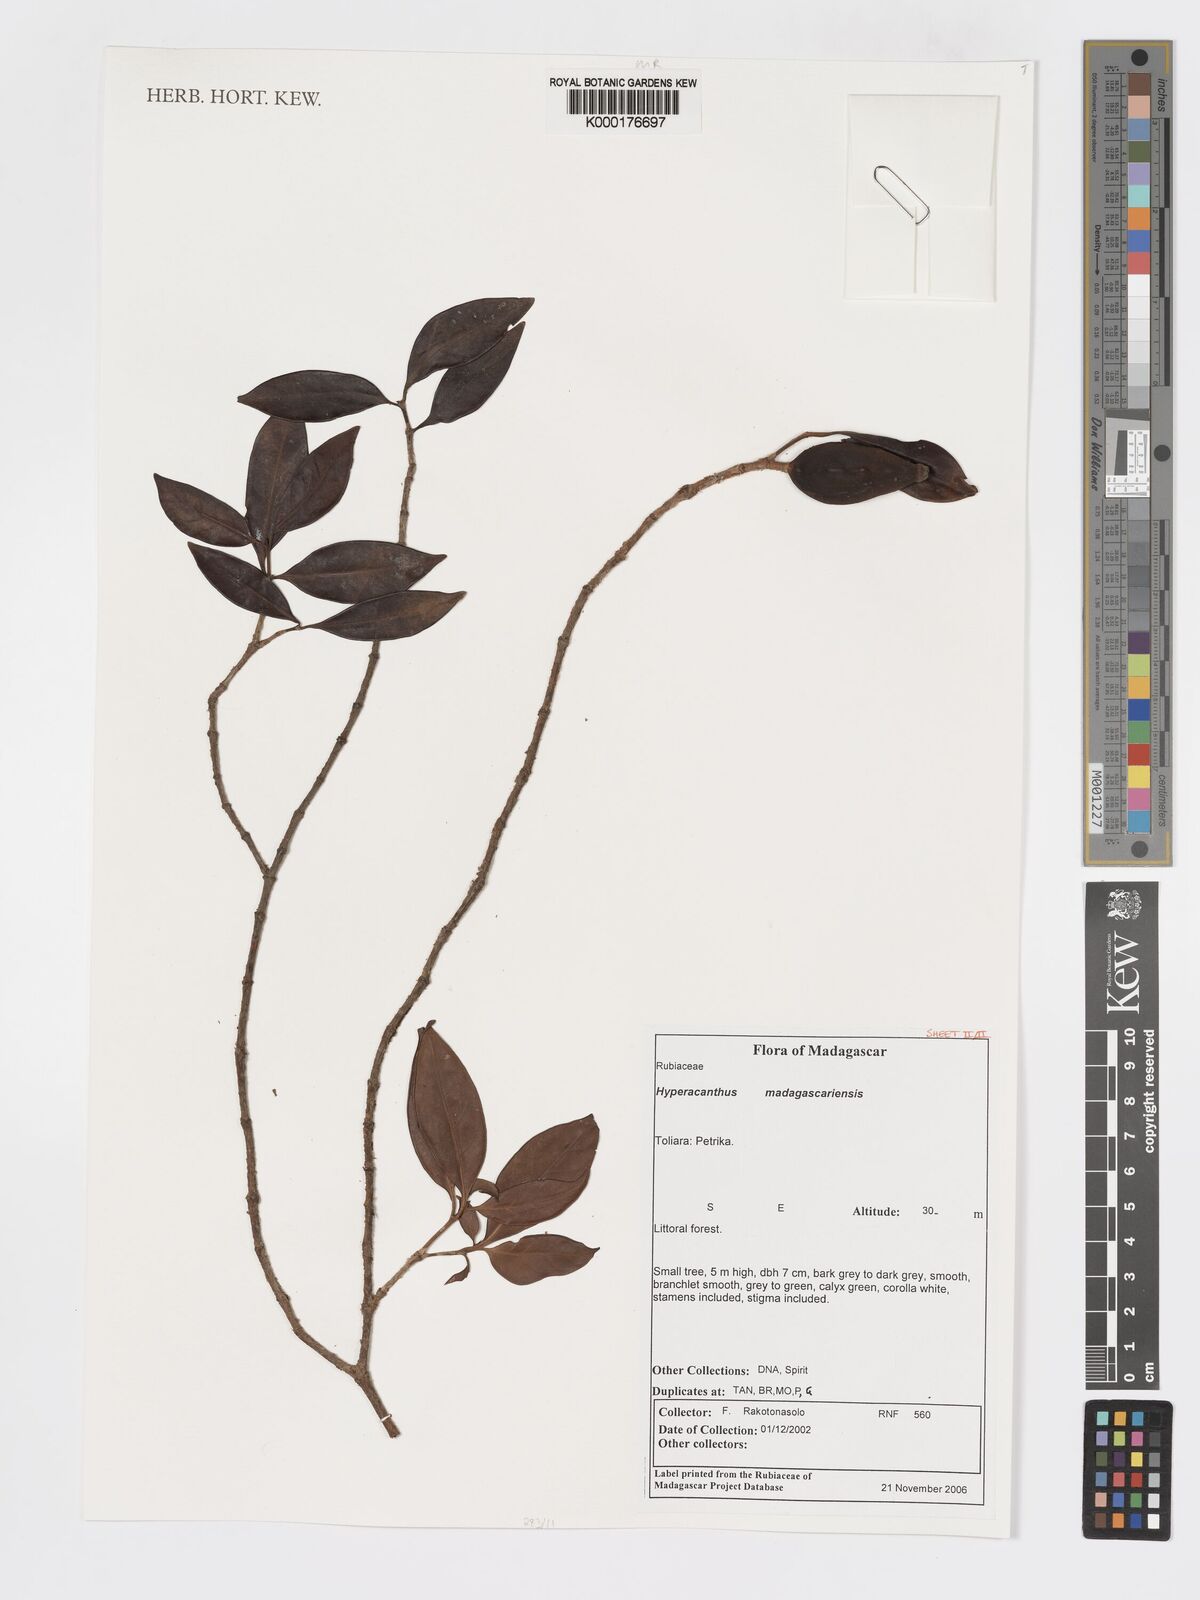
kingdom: Plantae
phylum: Tracheophyta
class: Magnoliopsida
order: Gentianales
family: Rubiaceae
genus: Hyperacanthus
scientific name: Hyperacanthus madagascariensis
